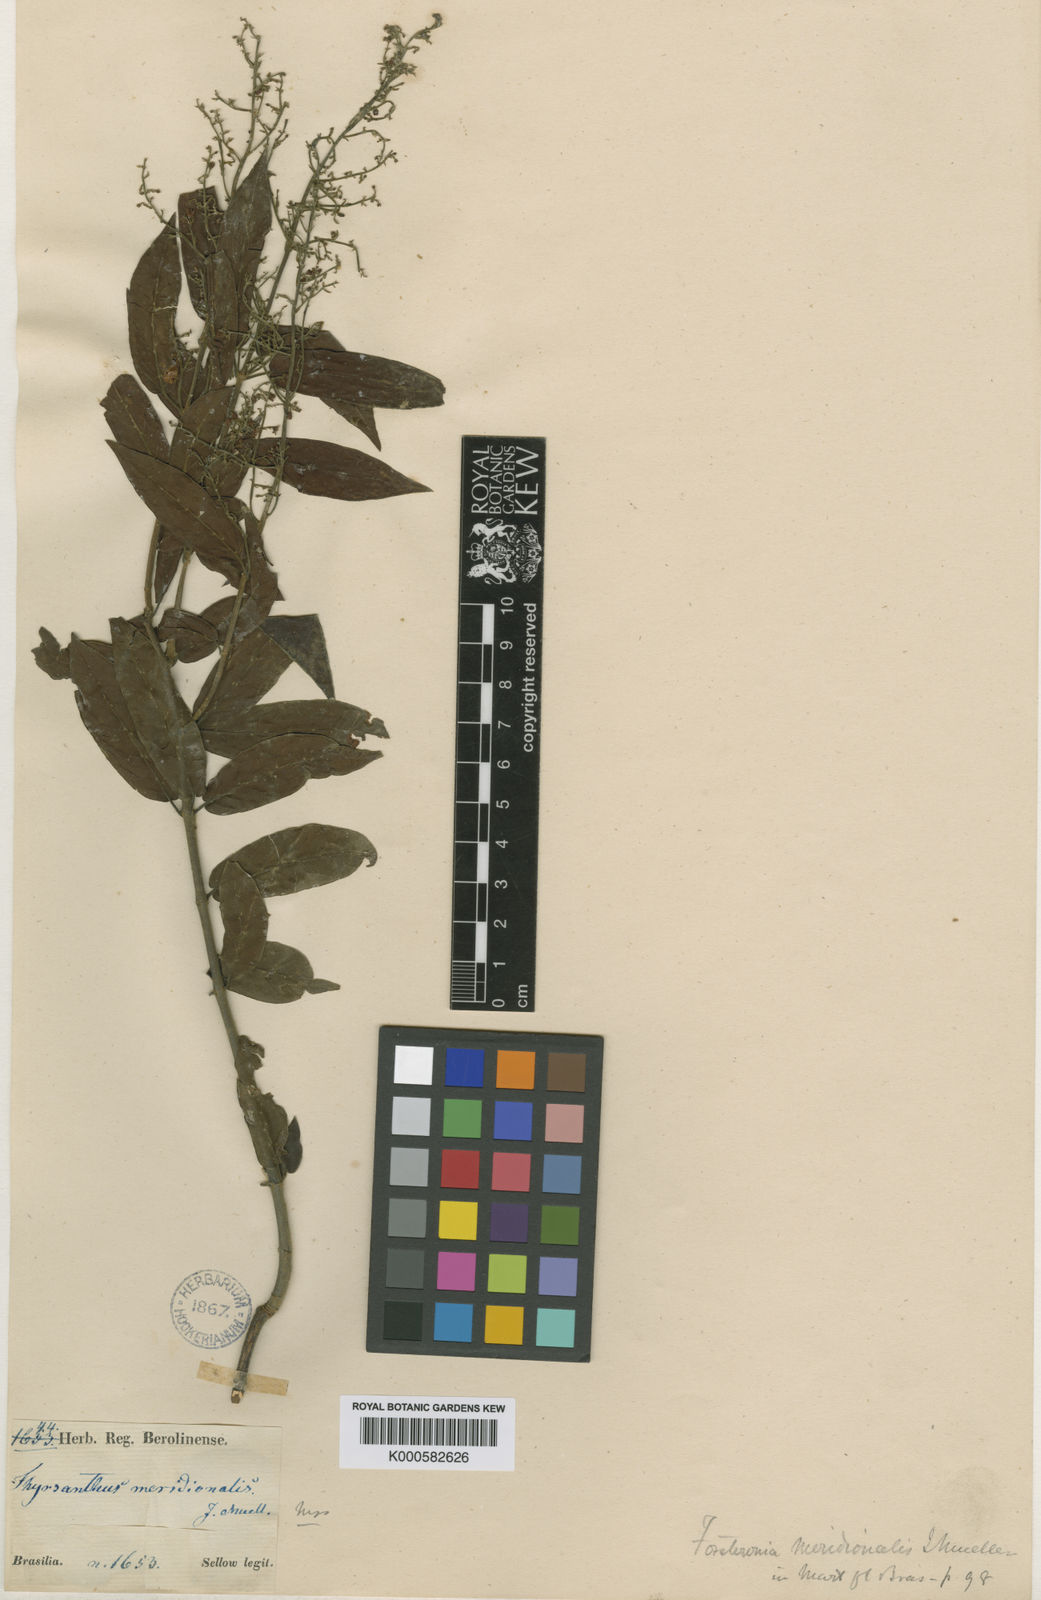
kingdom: Plantae
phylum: Tracheophyta
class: Magnoliopsida
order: Gentianales
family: Apocynaceae
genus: Forsteronia
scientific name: Forsteronia
